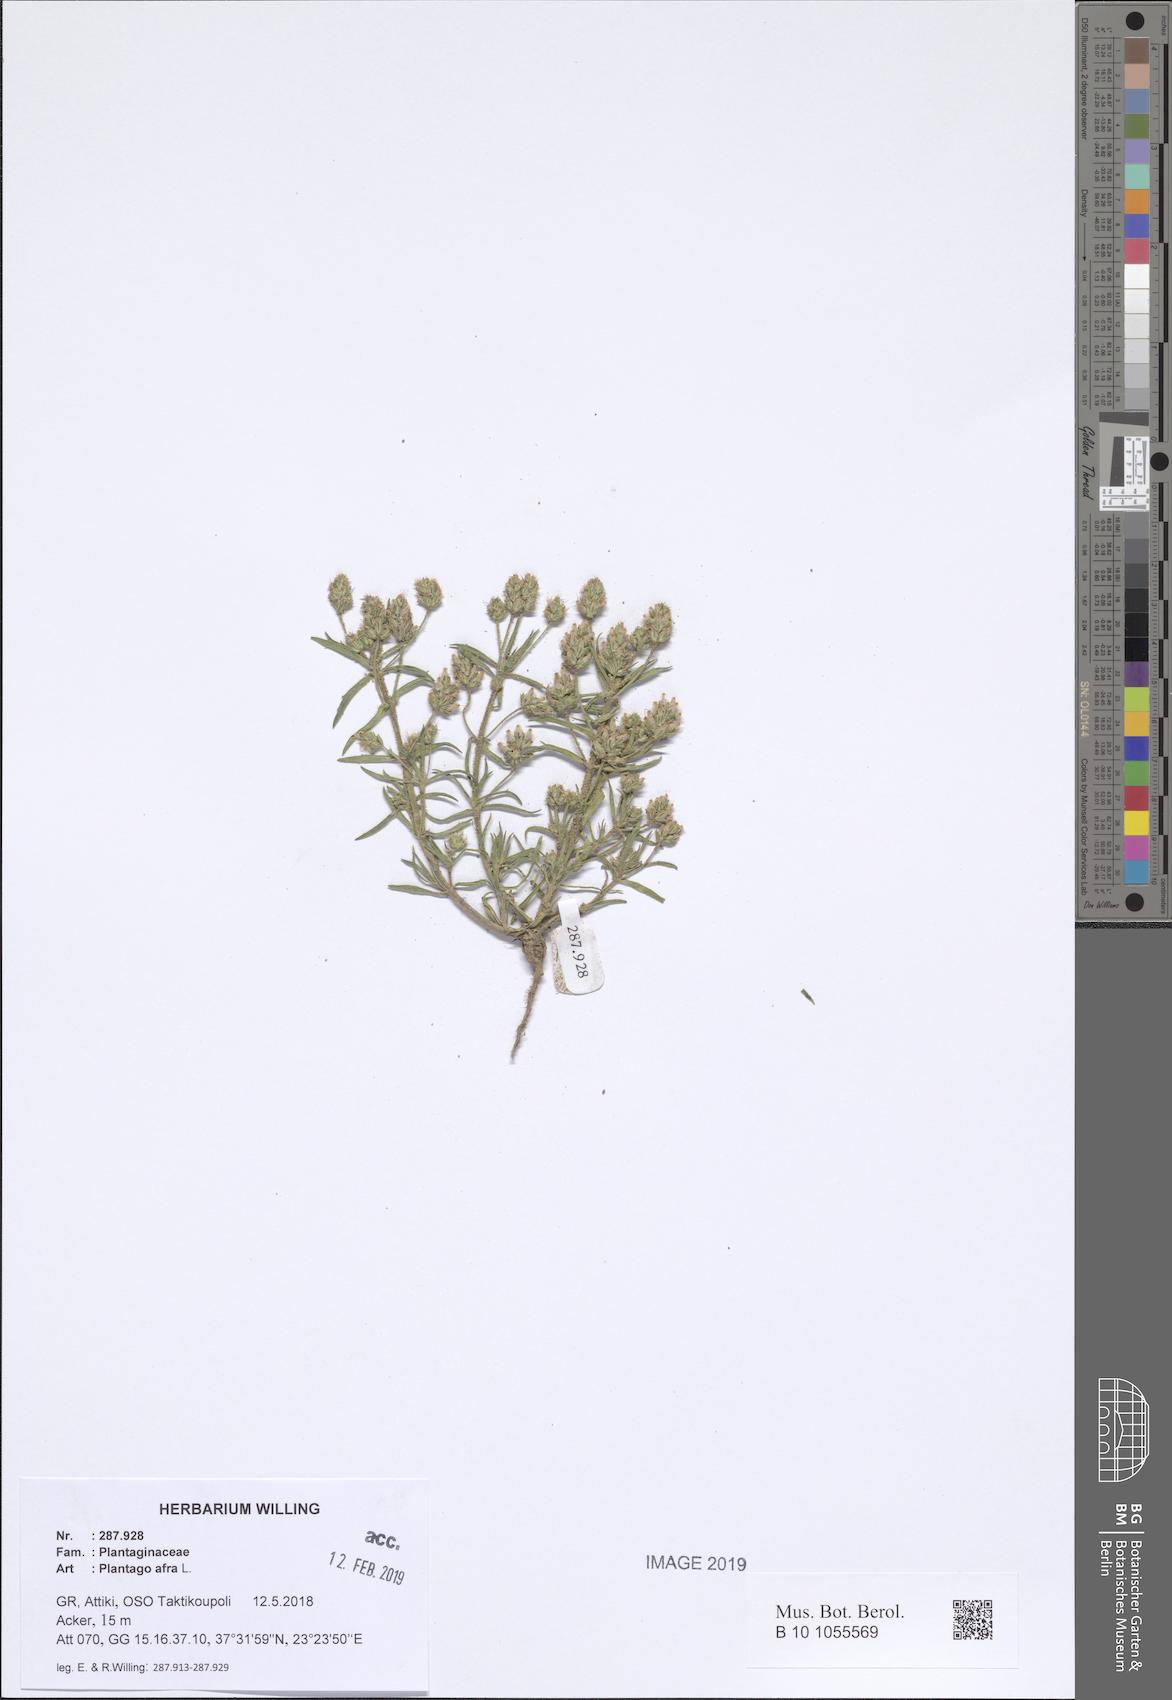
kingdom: Plantae
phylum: Tracheophyta
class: Magnoliopsida
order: Lamiales
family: Plantaginaceae
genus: Plantago
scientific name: Plantago afra
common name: Glandular plantain
